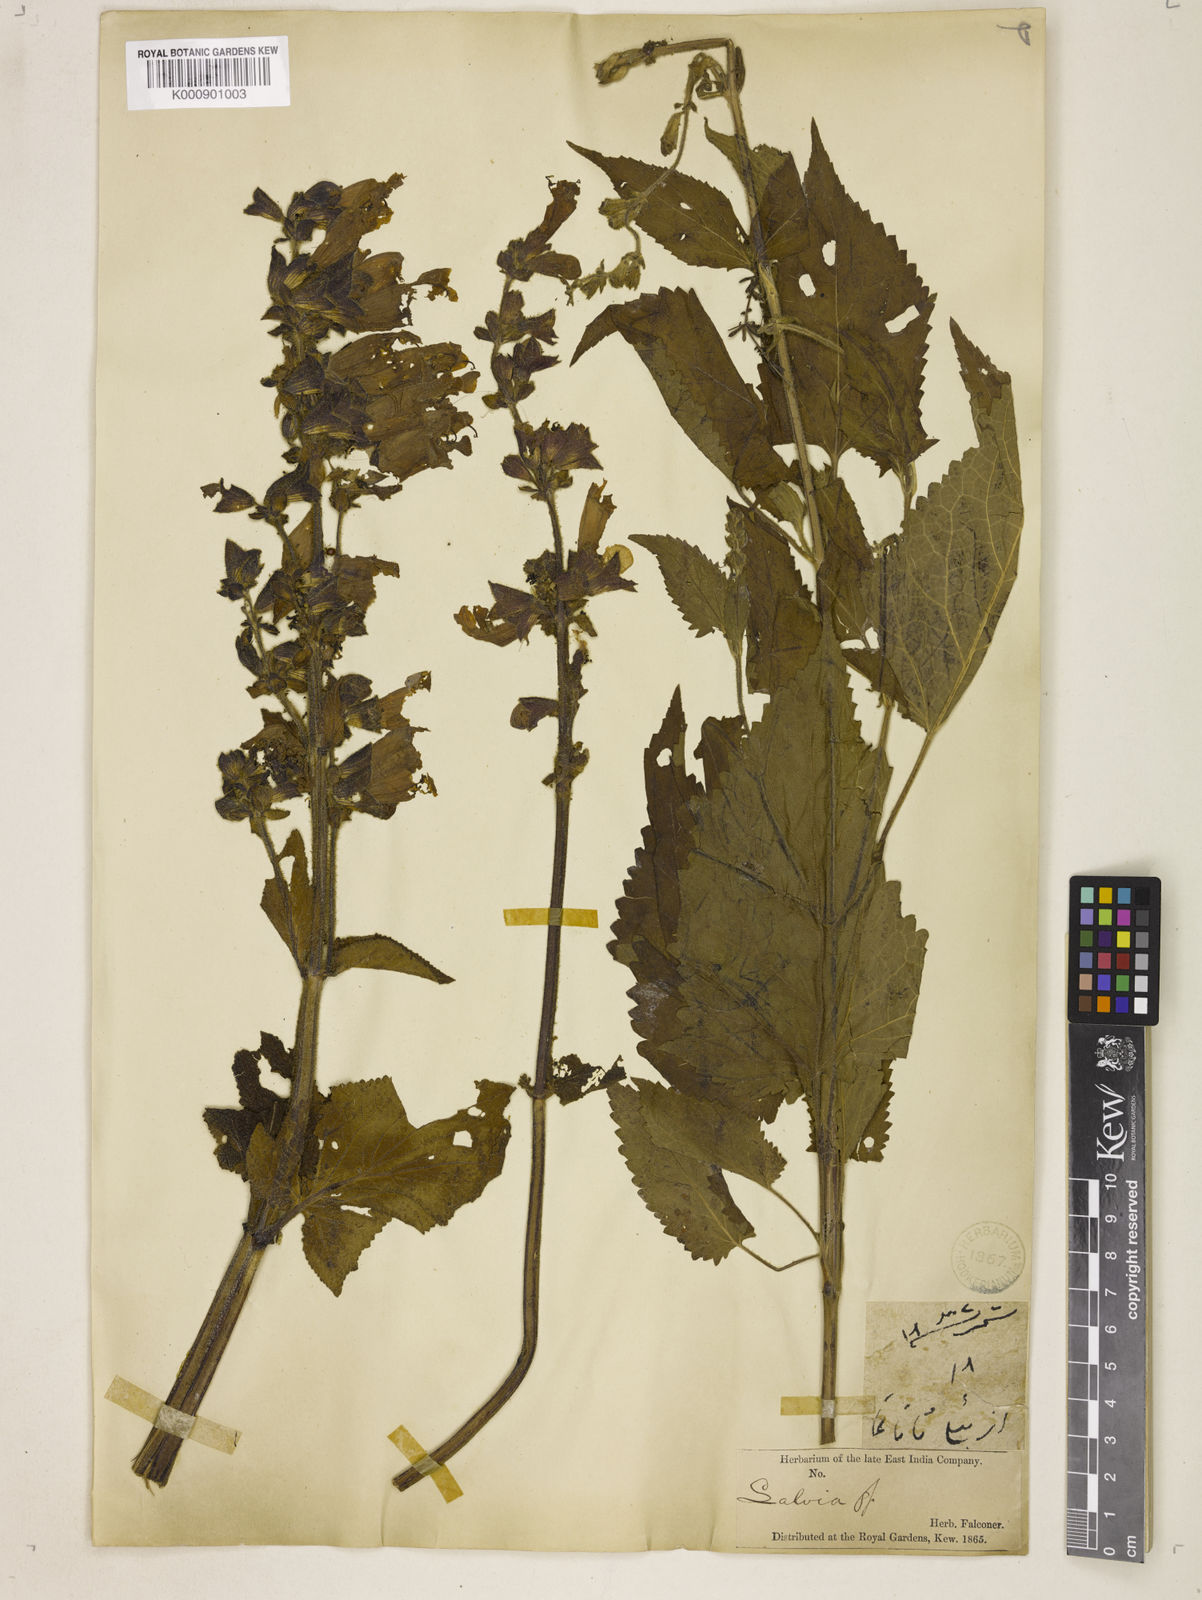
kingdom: Plantae
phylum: Tracheophyta
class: Magnoliopsida
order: Lamiales
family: Lamiaceae
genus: Salvia
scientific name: Salvia hians
